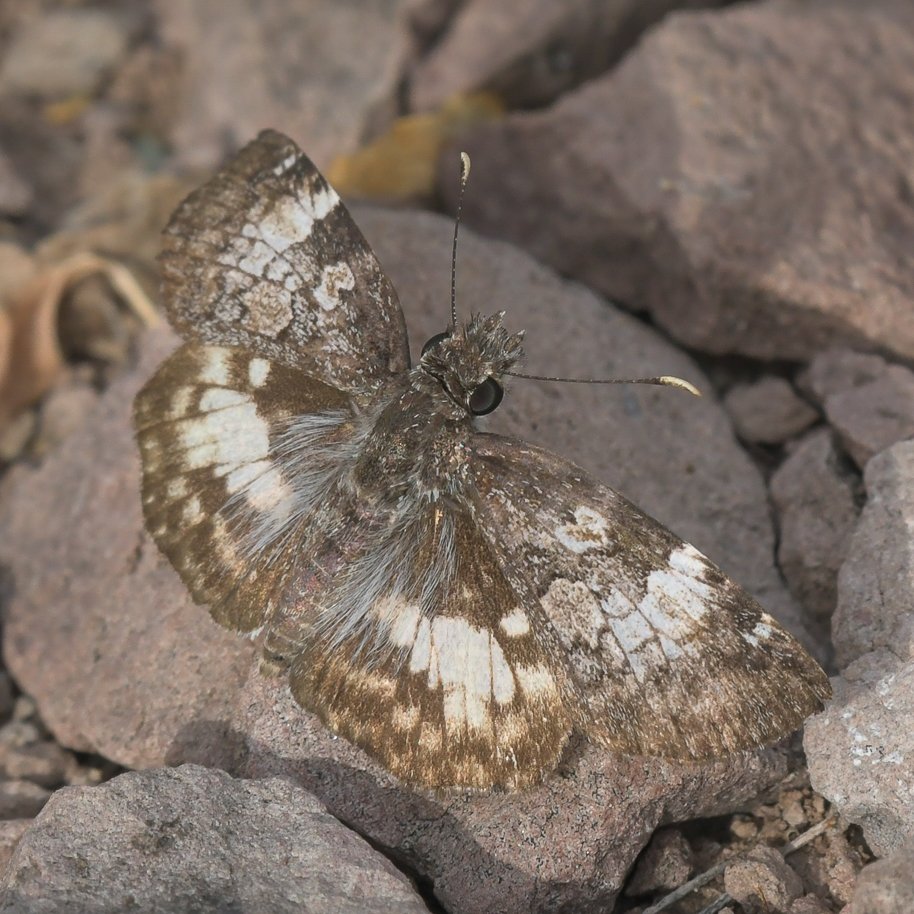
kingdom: Animalia
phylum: Arthropoda
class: Insecta
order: Lepidoptera
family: Hesperiidae
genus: Chiomara
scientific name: Chiomara asychis
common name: White-patched Skipper
